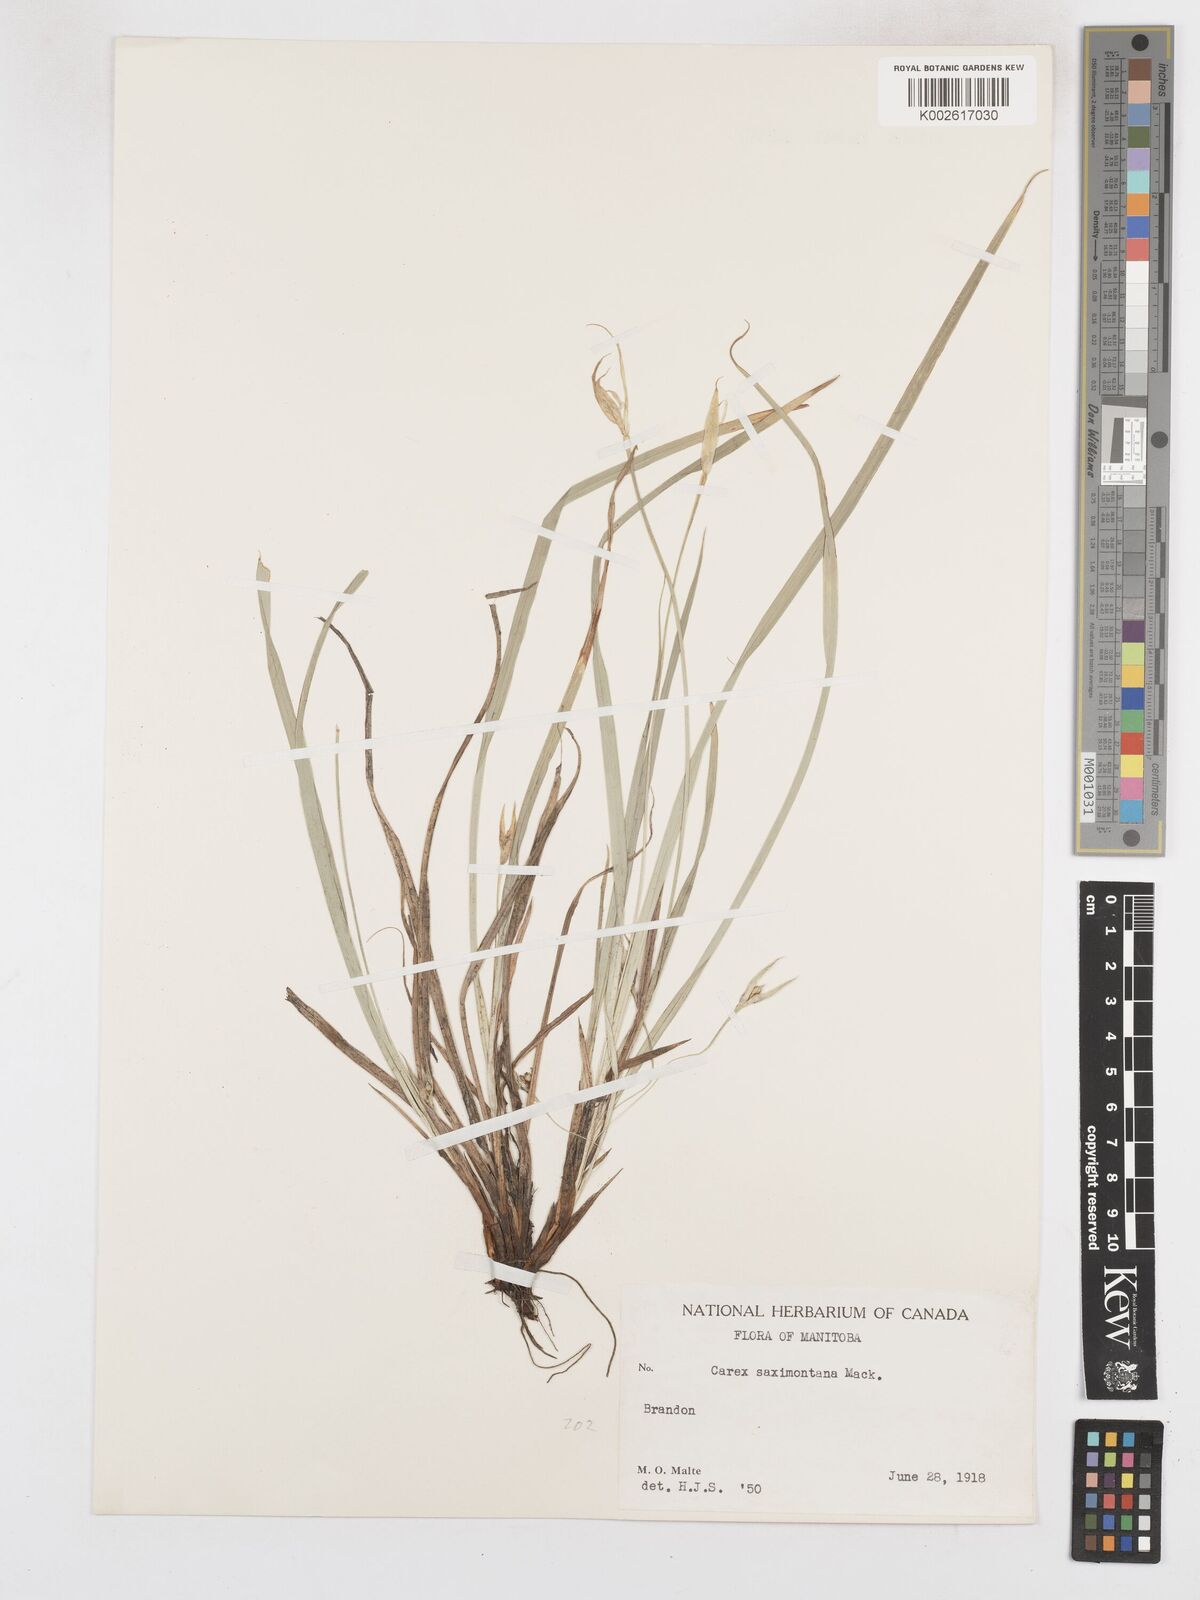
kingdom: Plantae
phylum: Tracheophyta
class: Liliopsida
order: Poales
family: Cyperaceae
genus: Carex
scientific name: Carex saximontana
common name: Rocky mountain sedge
